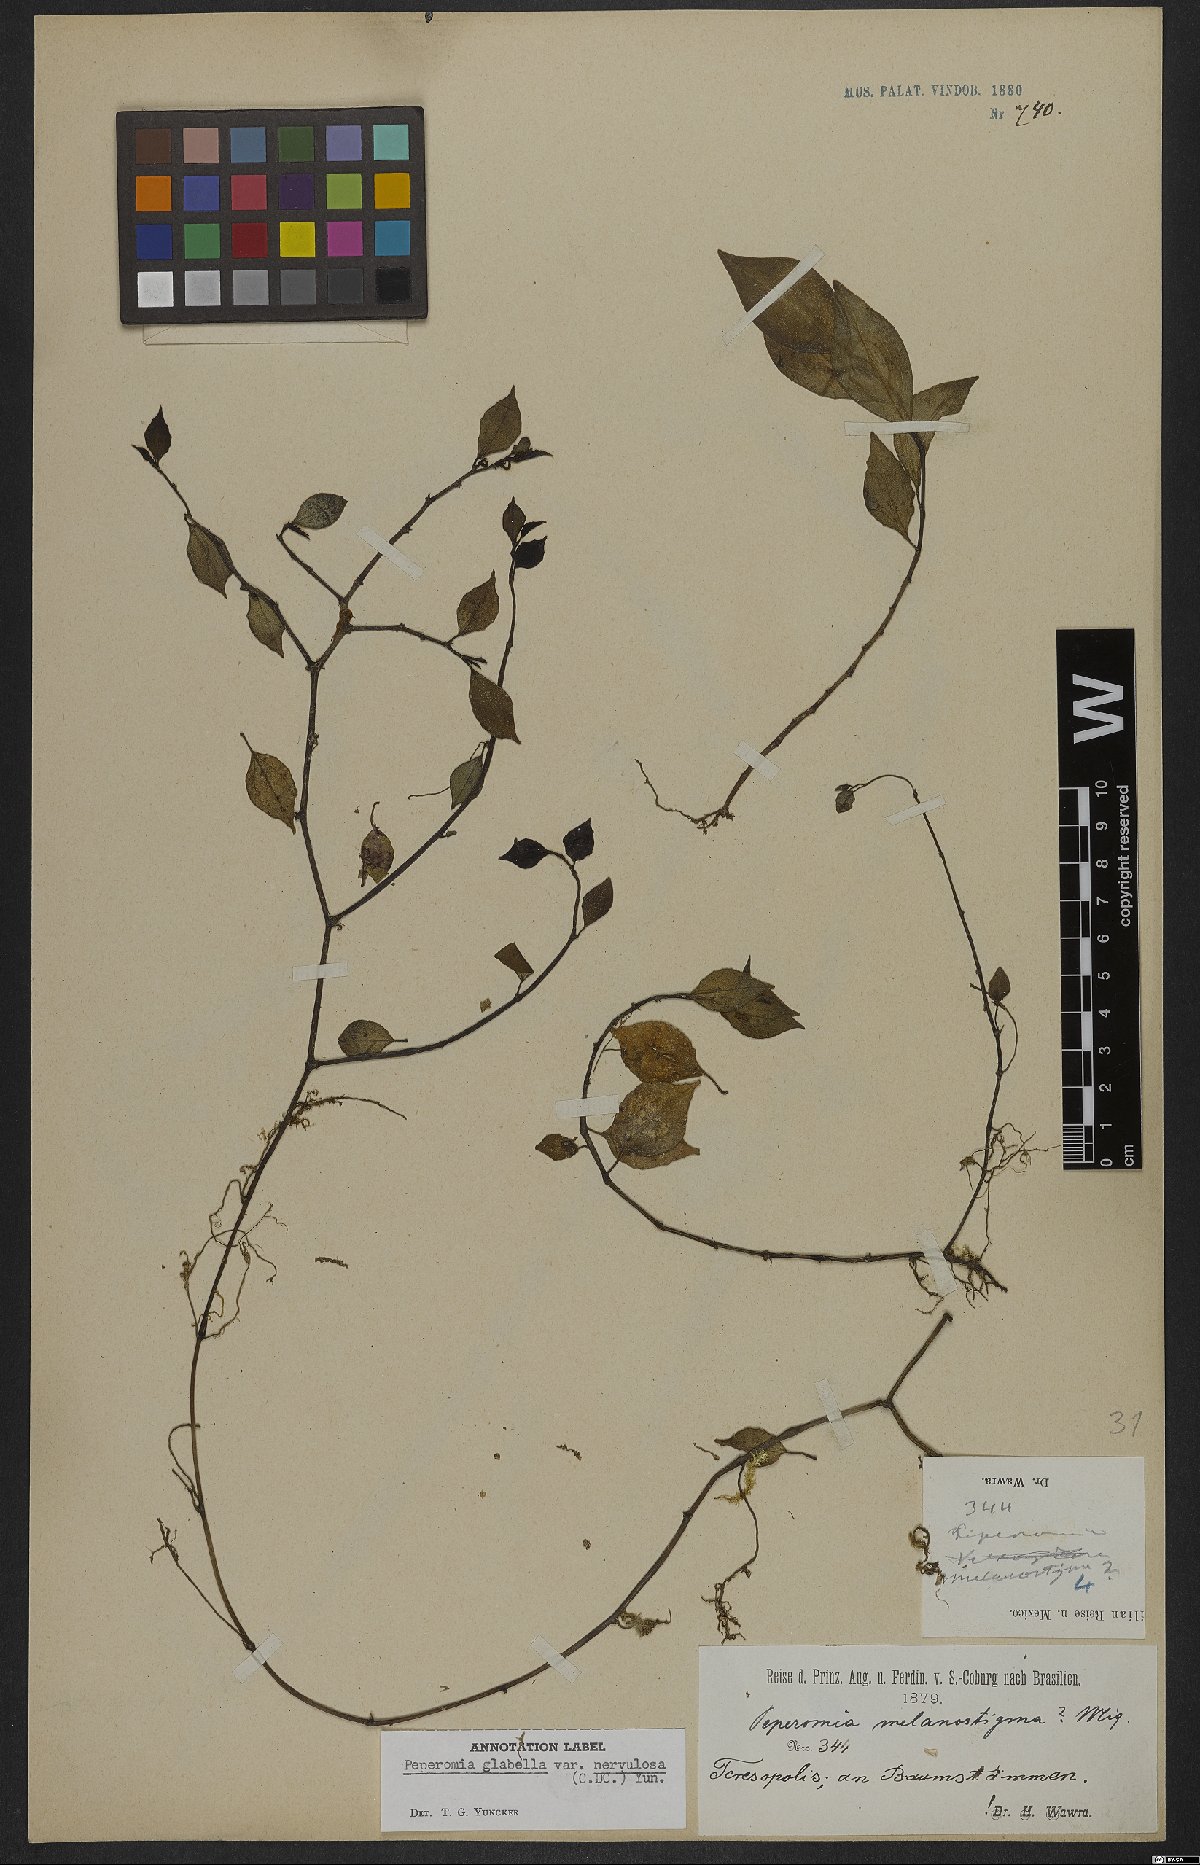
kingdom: Plantae
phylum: Tracheophyta
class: Magnoliopsida
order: Piperales
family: Piperaceae
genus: Peperomia
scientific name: Peperomia glabella
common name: Cypress peperomia
